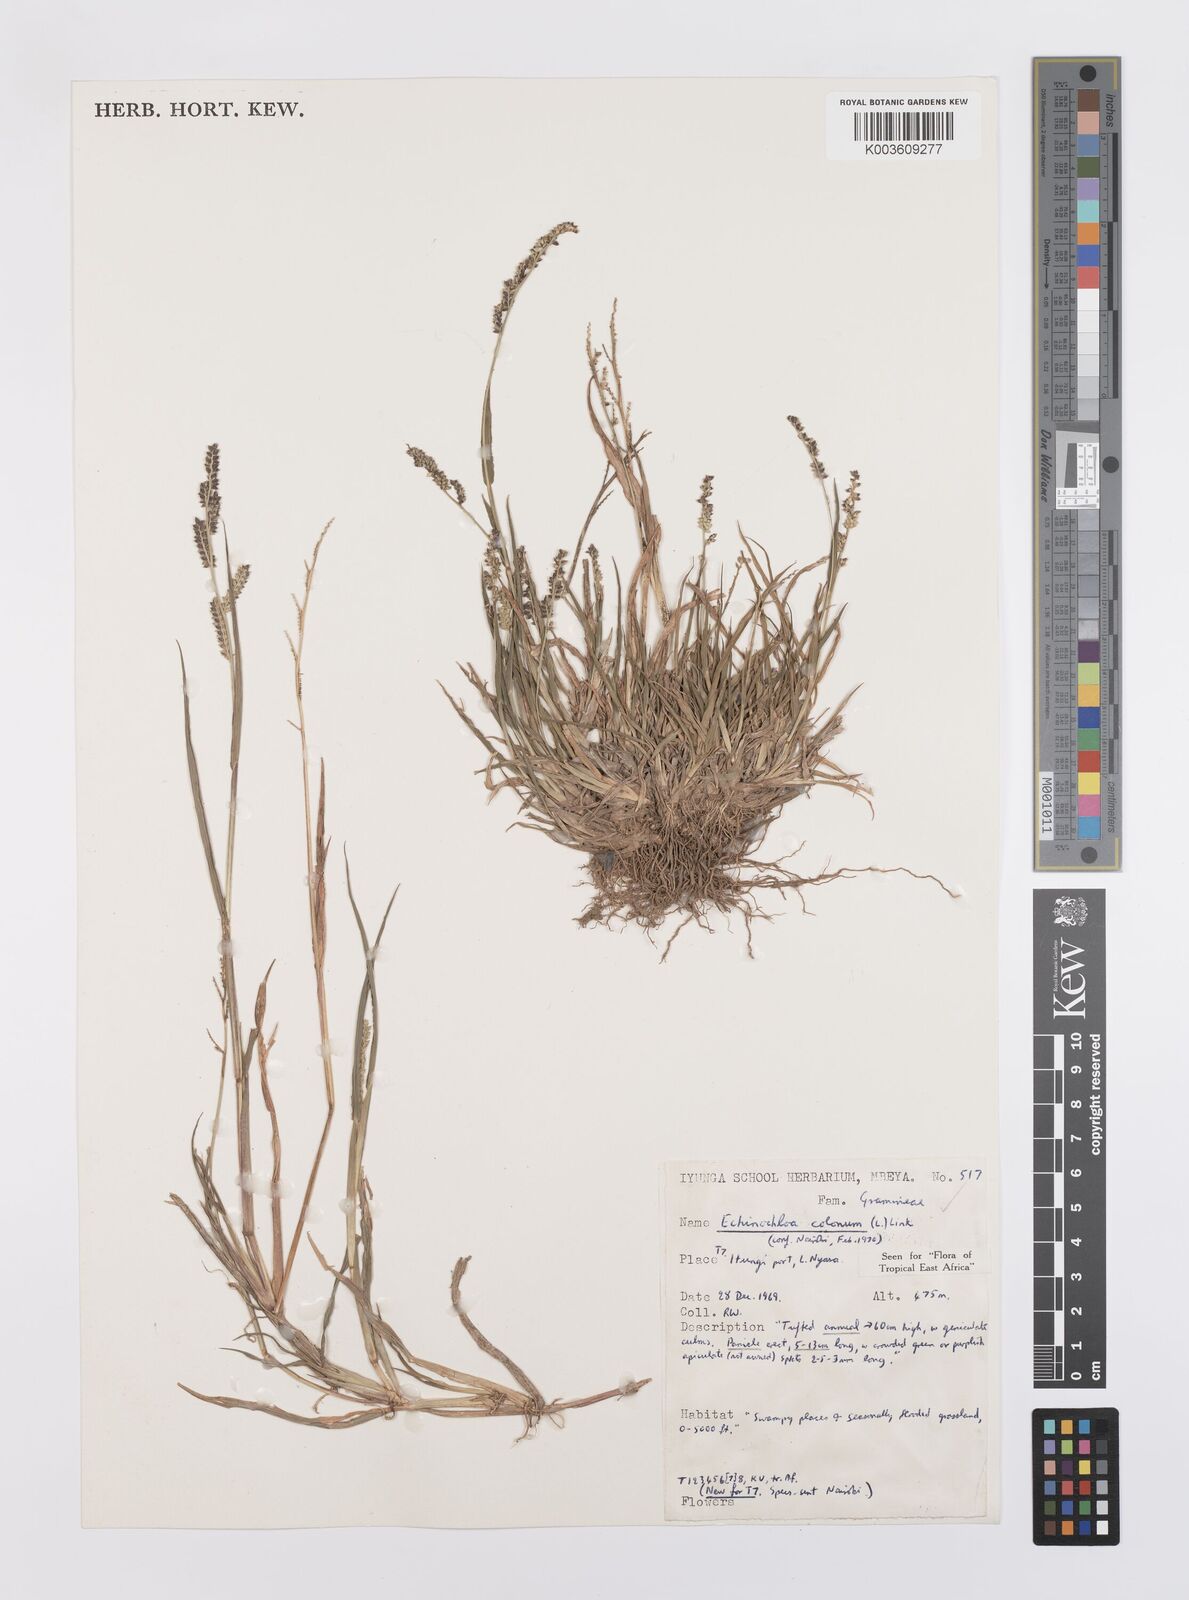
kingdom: Plantae
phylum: Tracheophyta
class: Liliopsida
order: Poales
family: Poaceae
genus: Echinochloa
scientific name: Echinochloa colonum
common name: Jungle rice
